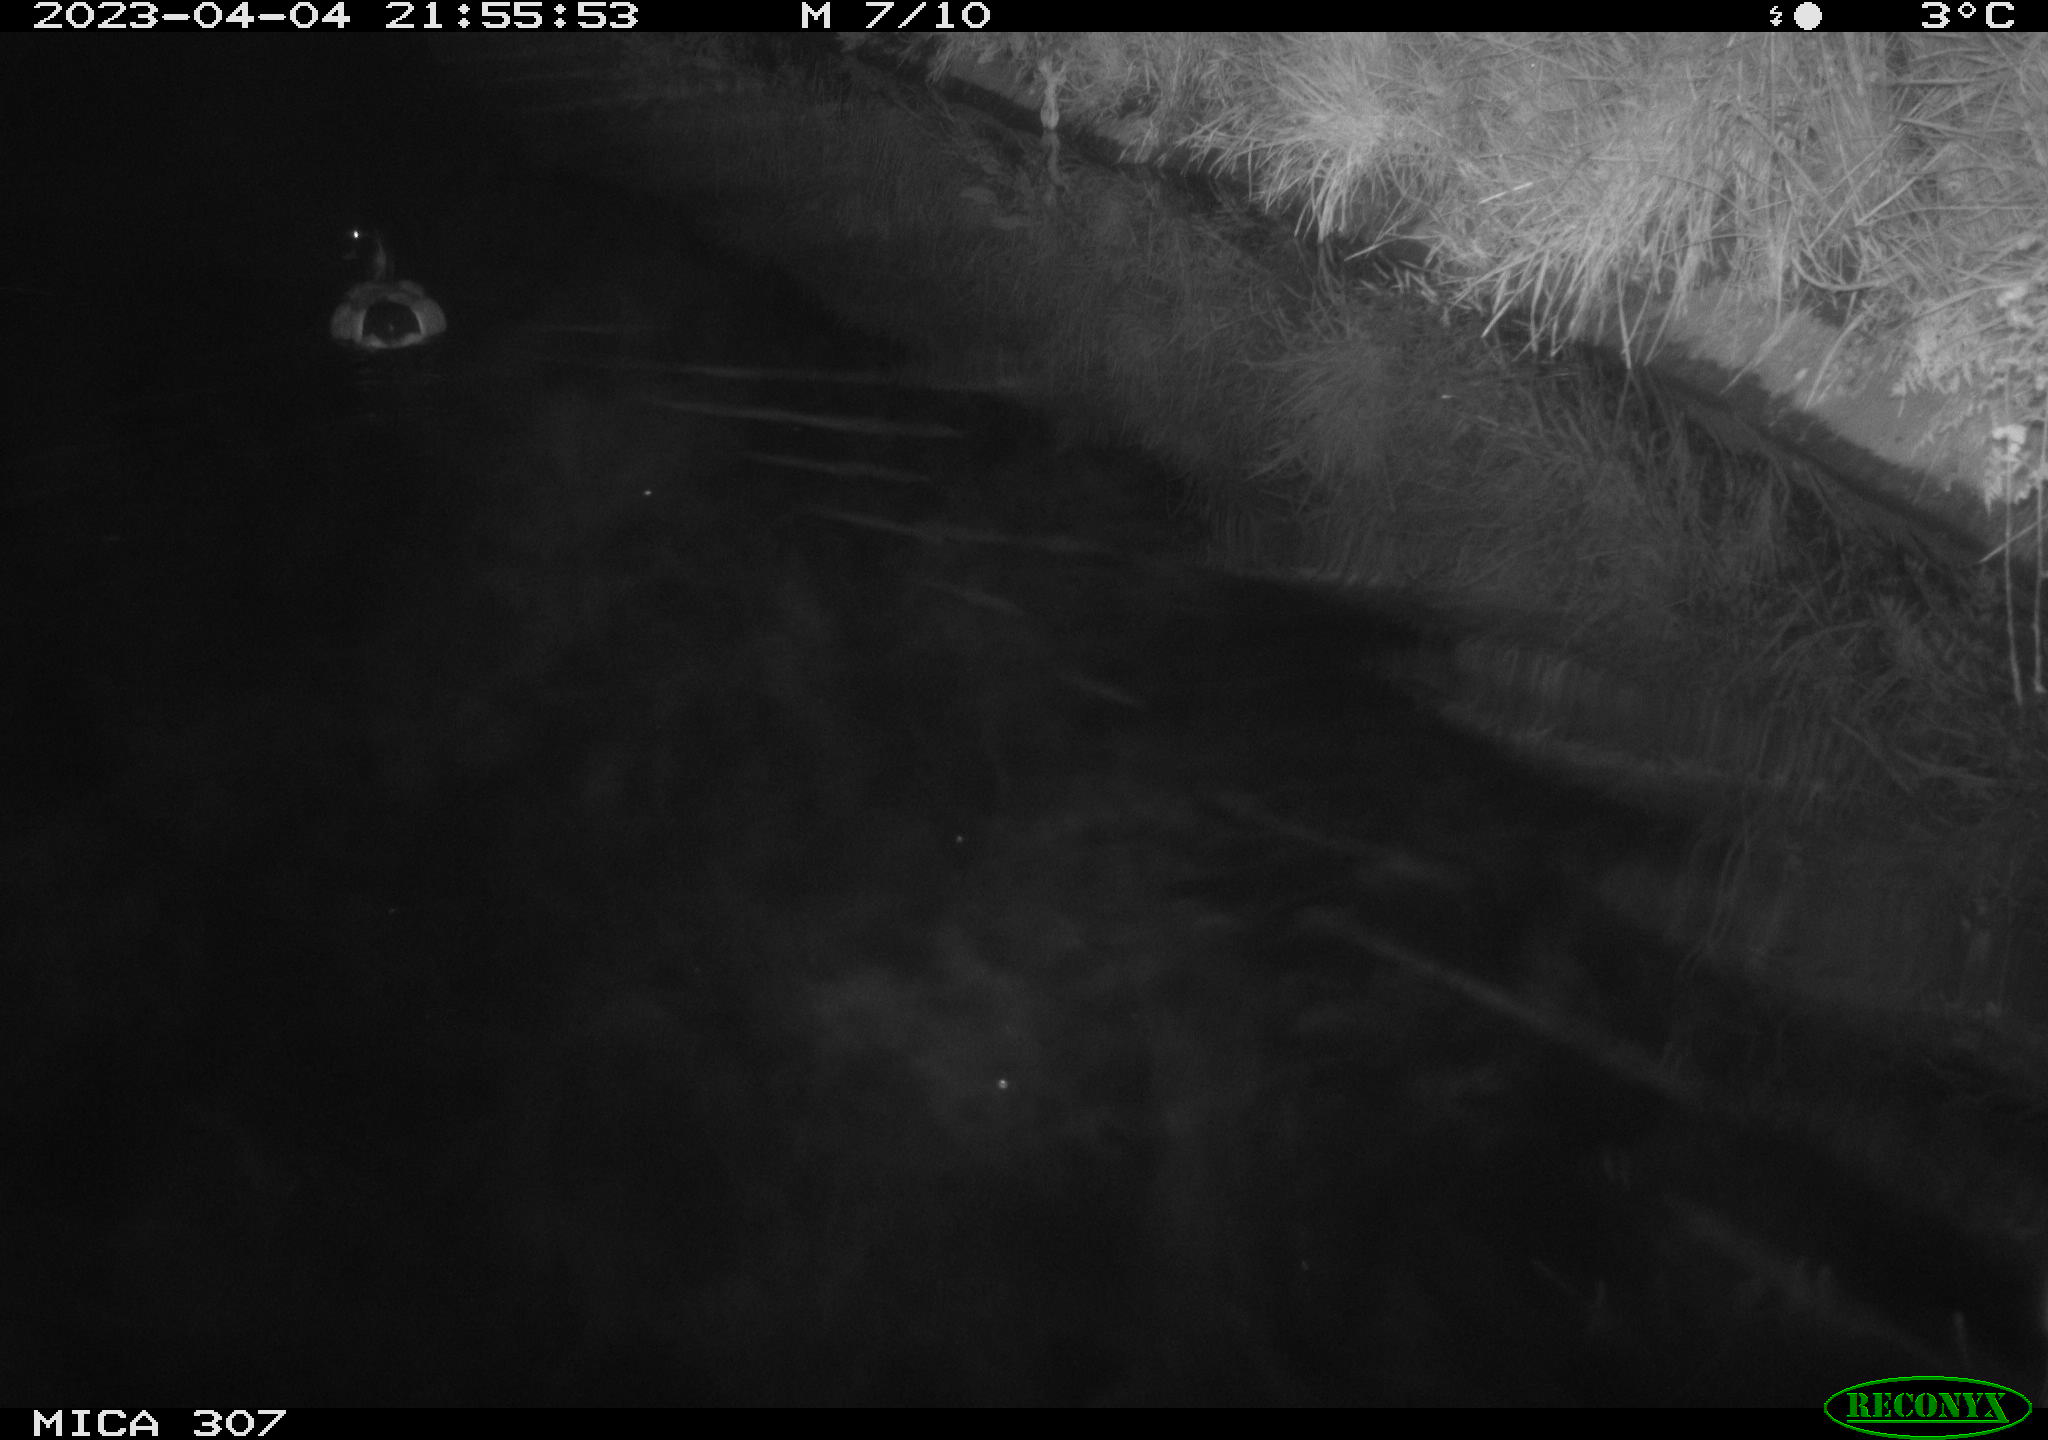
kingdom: Animalia
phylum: Chordata
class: Aves
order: Anseriformes
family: Anatidae
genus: Anas
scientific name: Anas
